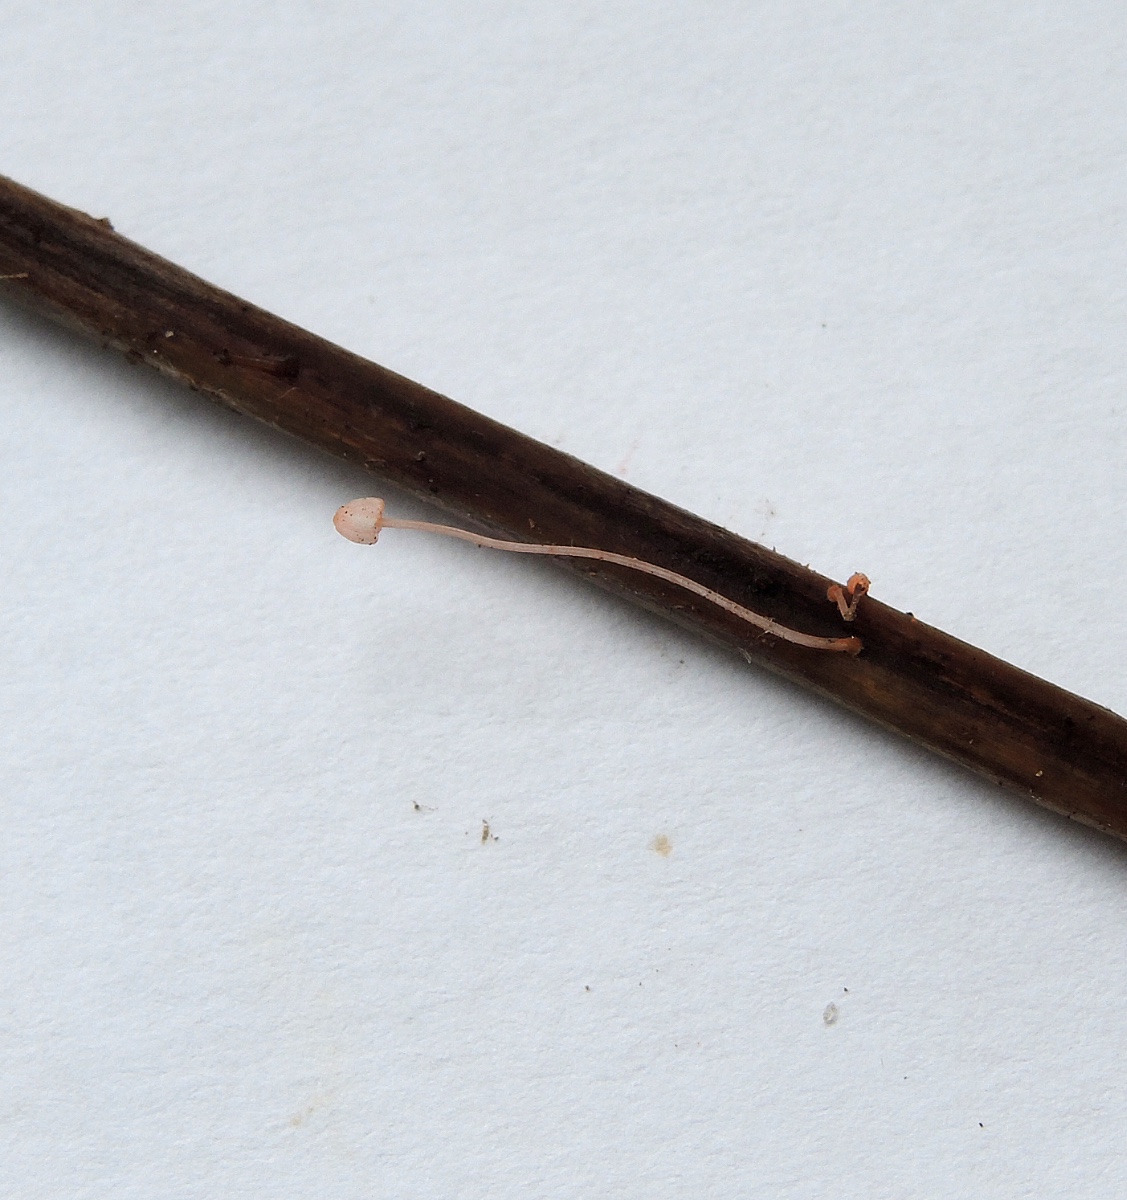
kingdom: Fungi
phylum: Basidiomycota
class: Agaricomycetes
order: Agaricales
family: Mycenaceae
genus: Mycena
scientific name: Mycena pterigena
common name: bregne-huesvamp
